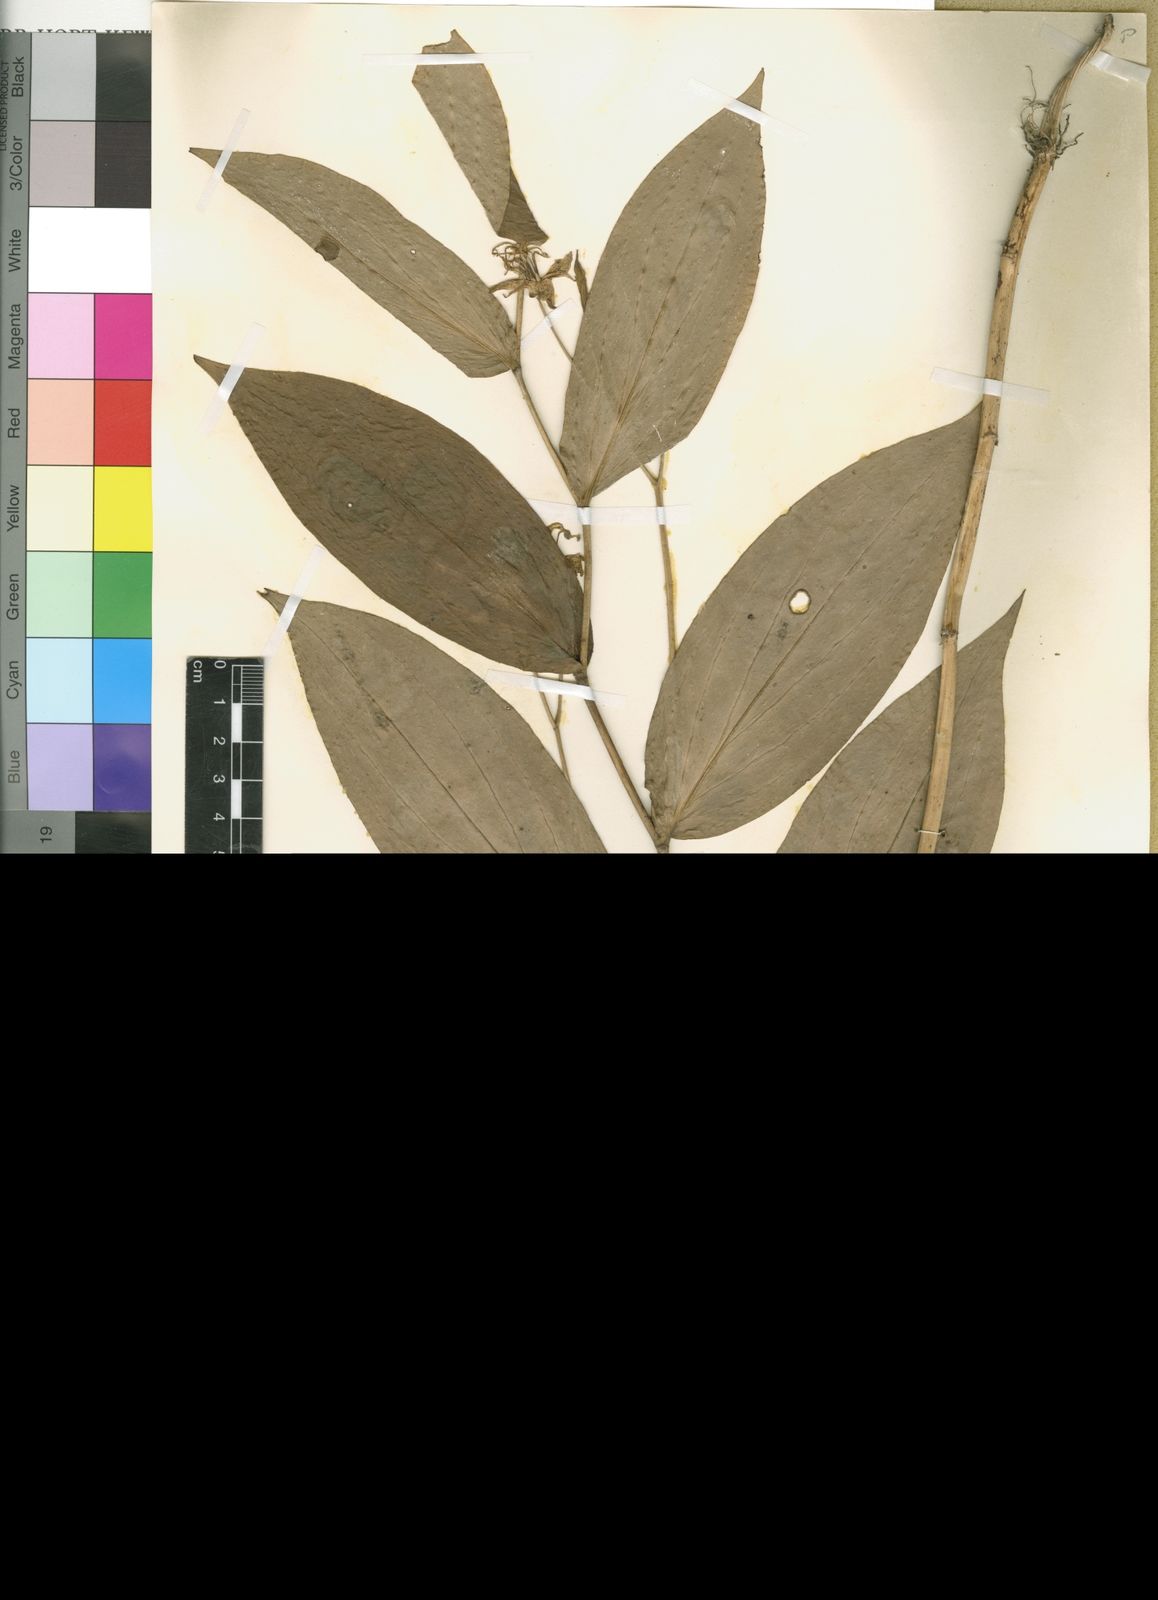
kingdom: Plantae
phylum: Tracheophyta
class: Polypodiopsida
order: Polypodiales
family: Pteridaceae
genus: Cheilanthes
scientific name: Cheilanthes tenuifolia
